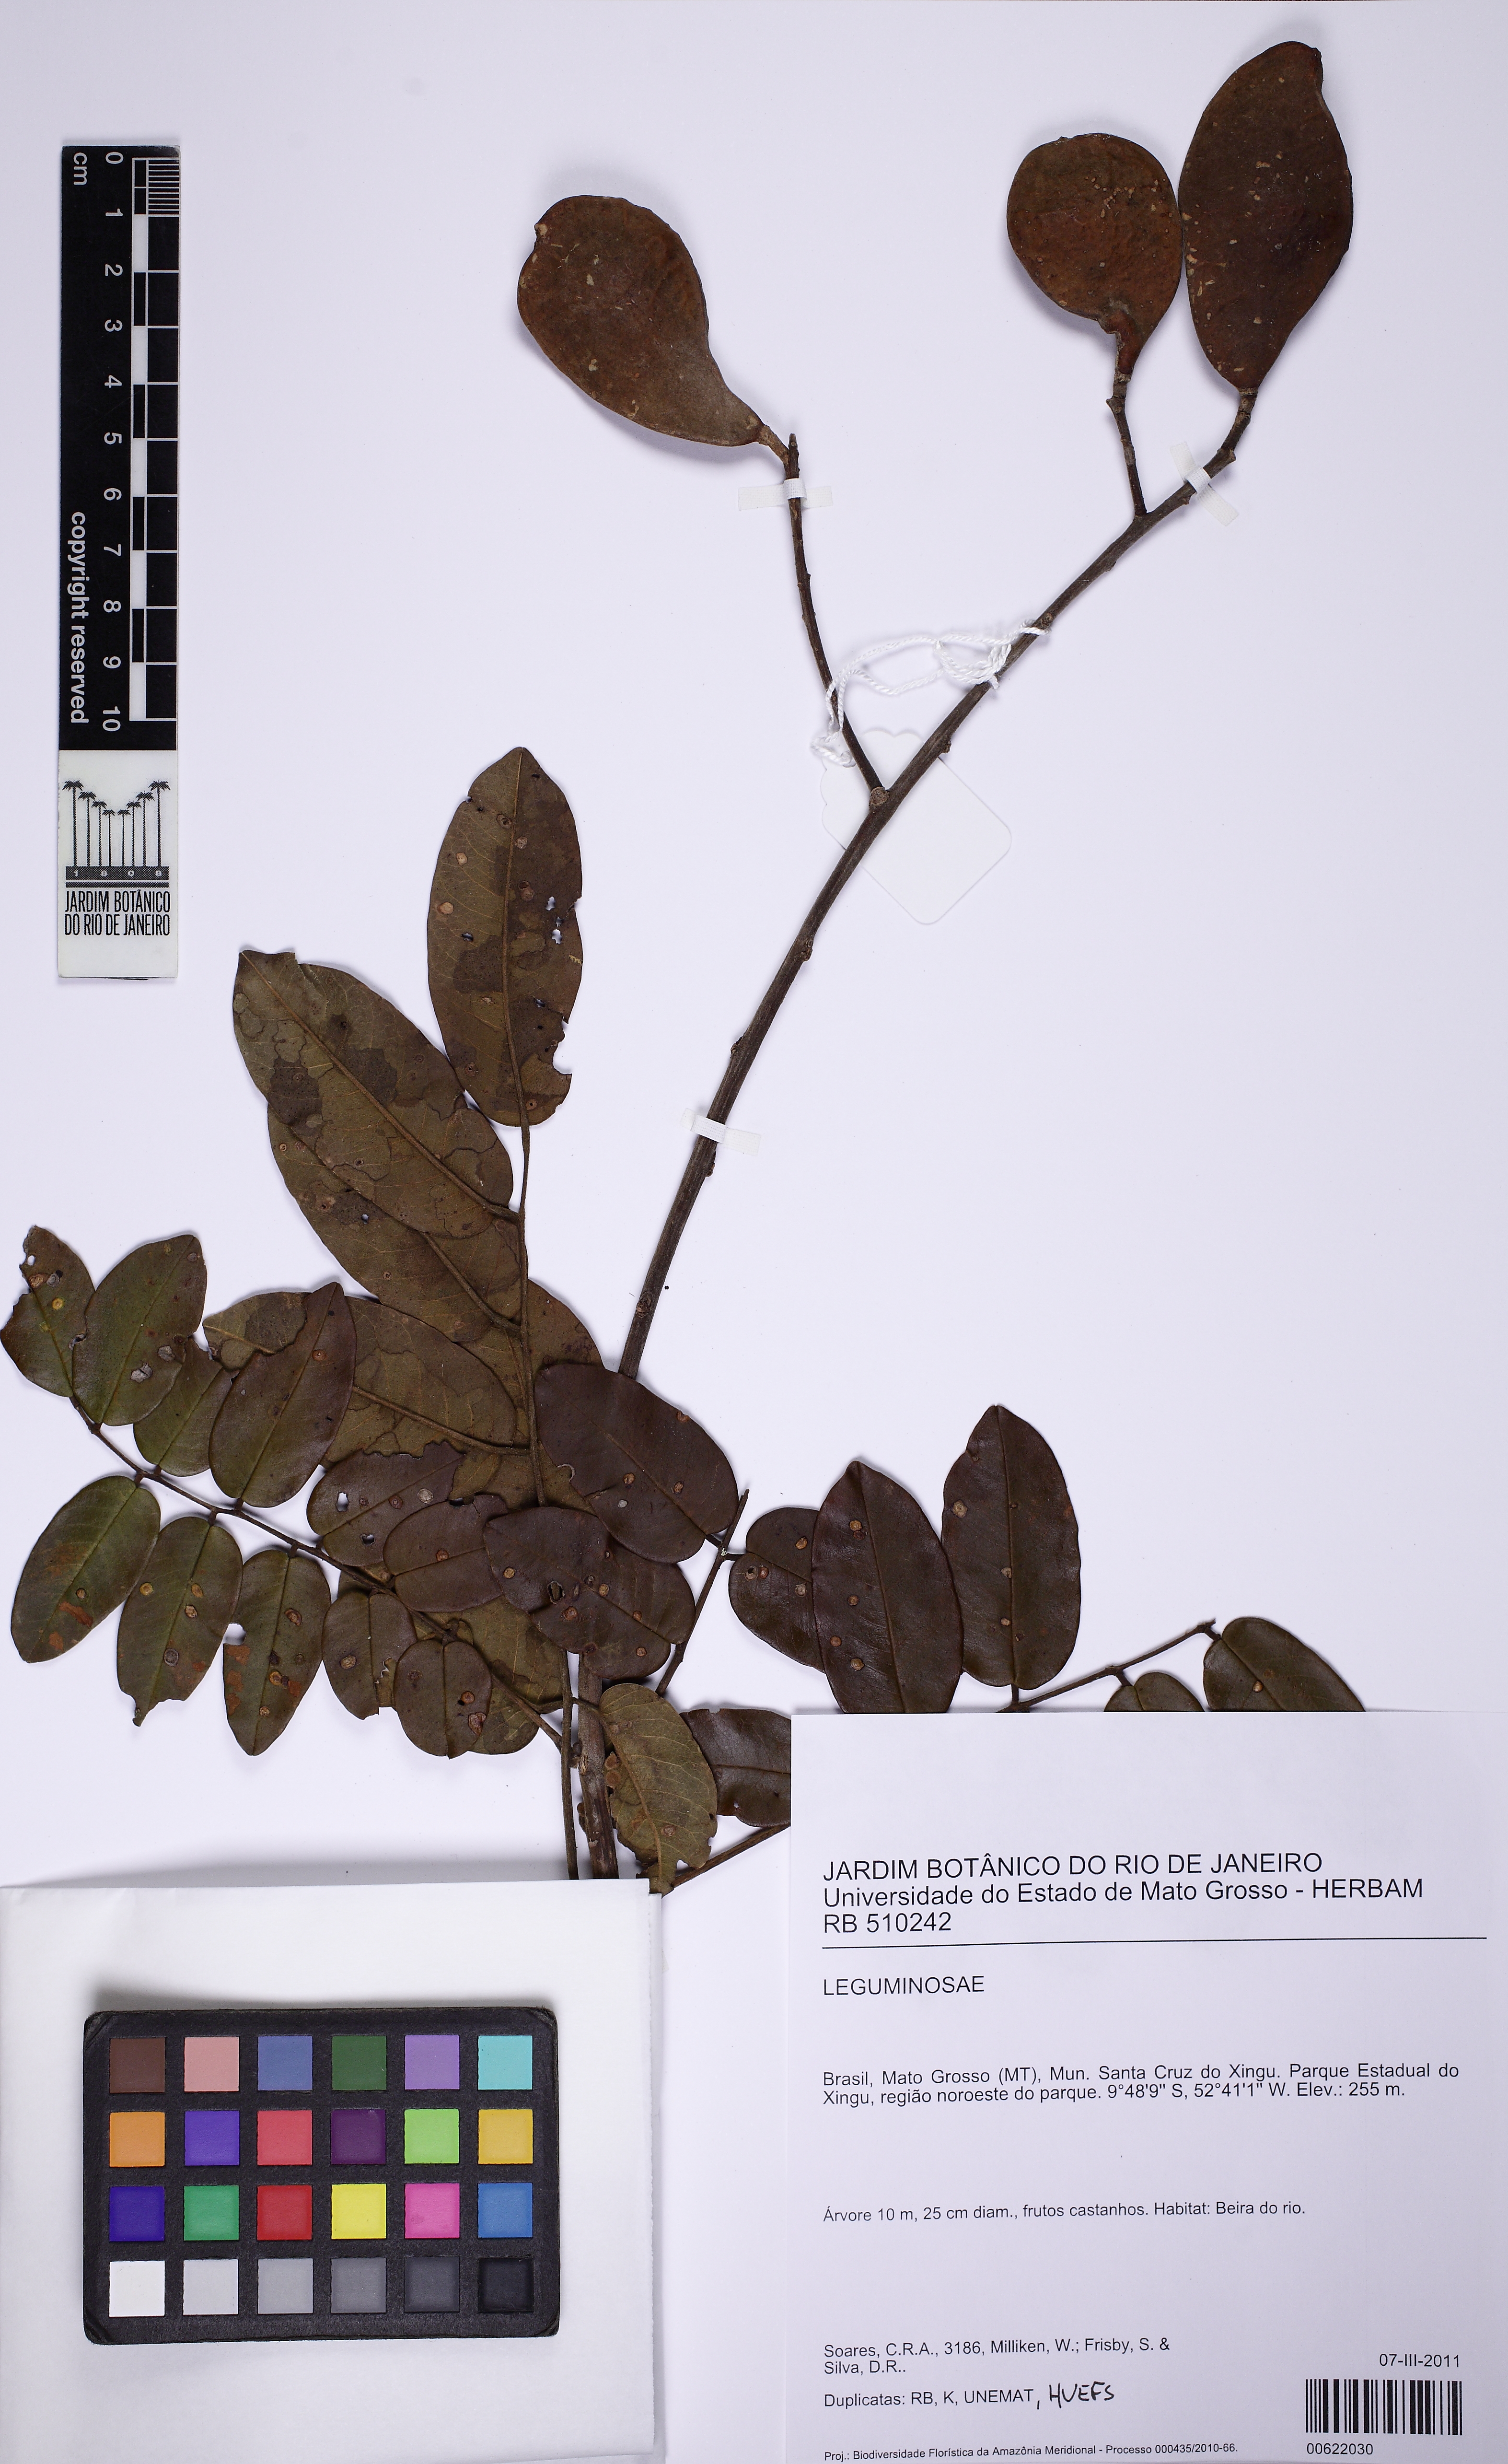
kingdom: Plantae
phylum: Tracheophyta
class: Magnoliopsida
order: Fabales
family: Fabaceae
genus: Ormosia
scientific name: Ormosia excelsa
